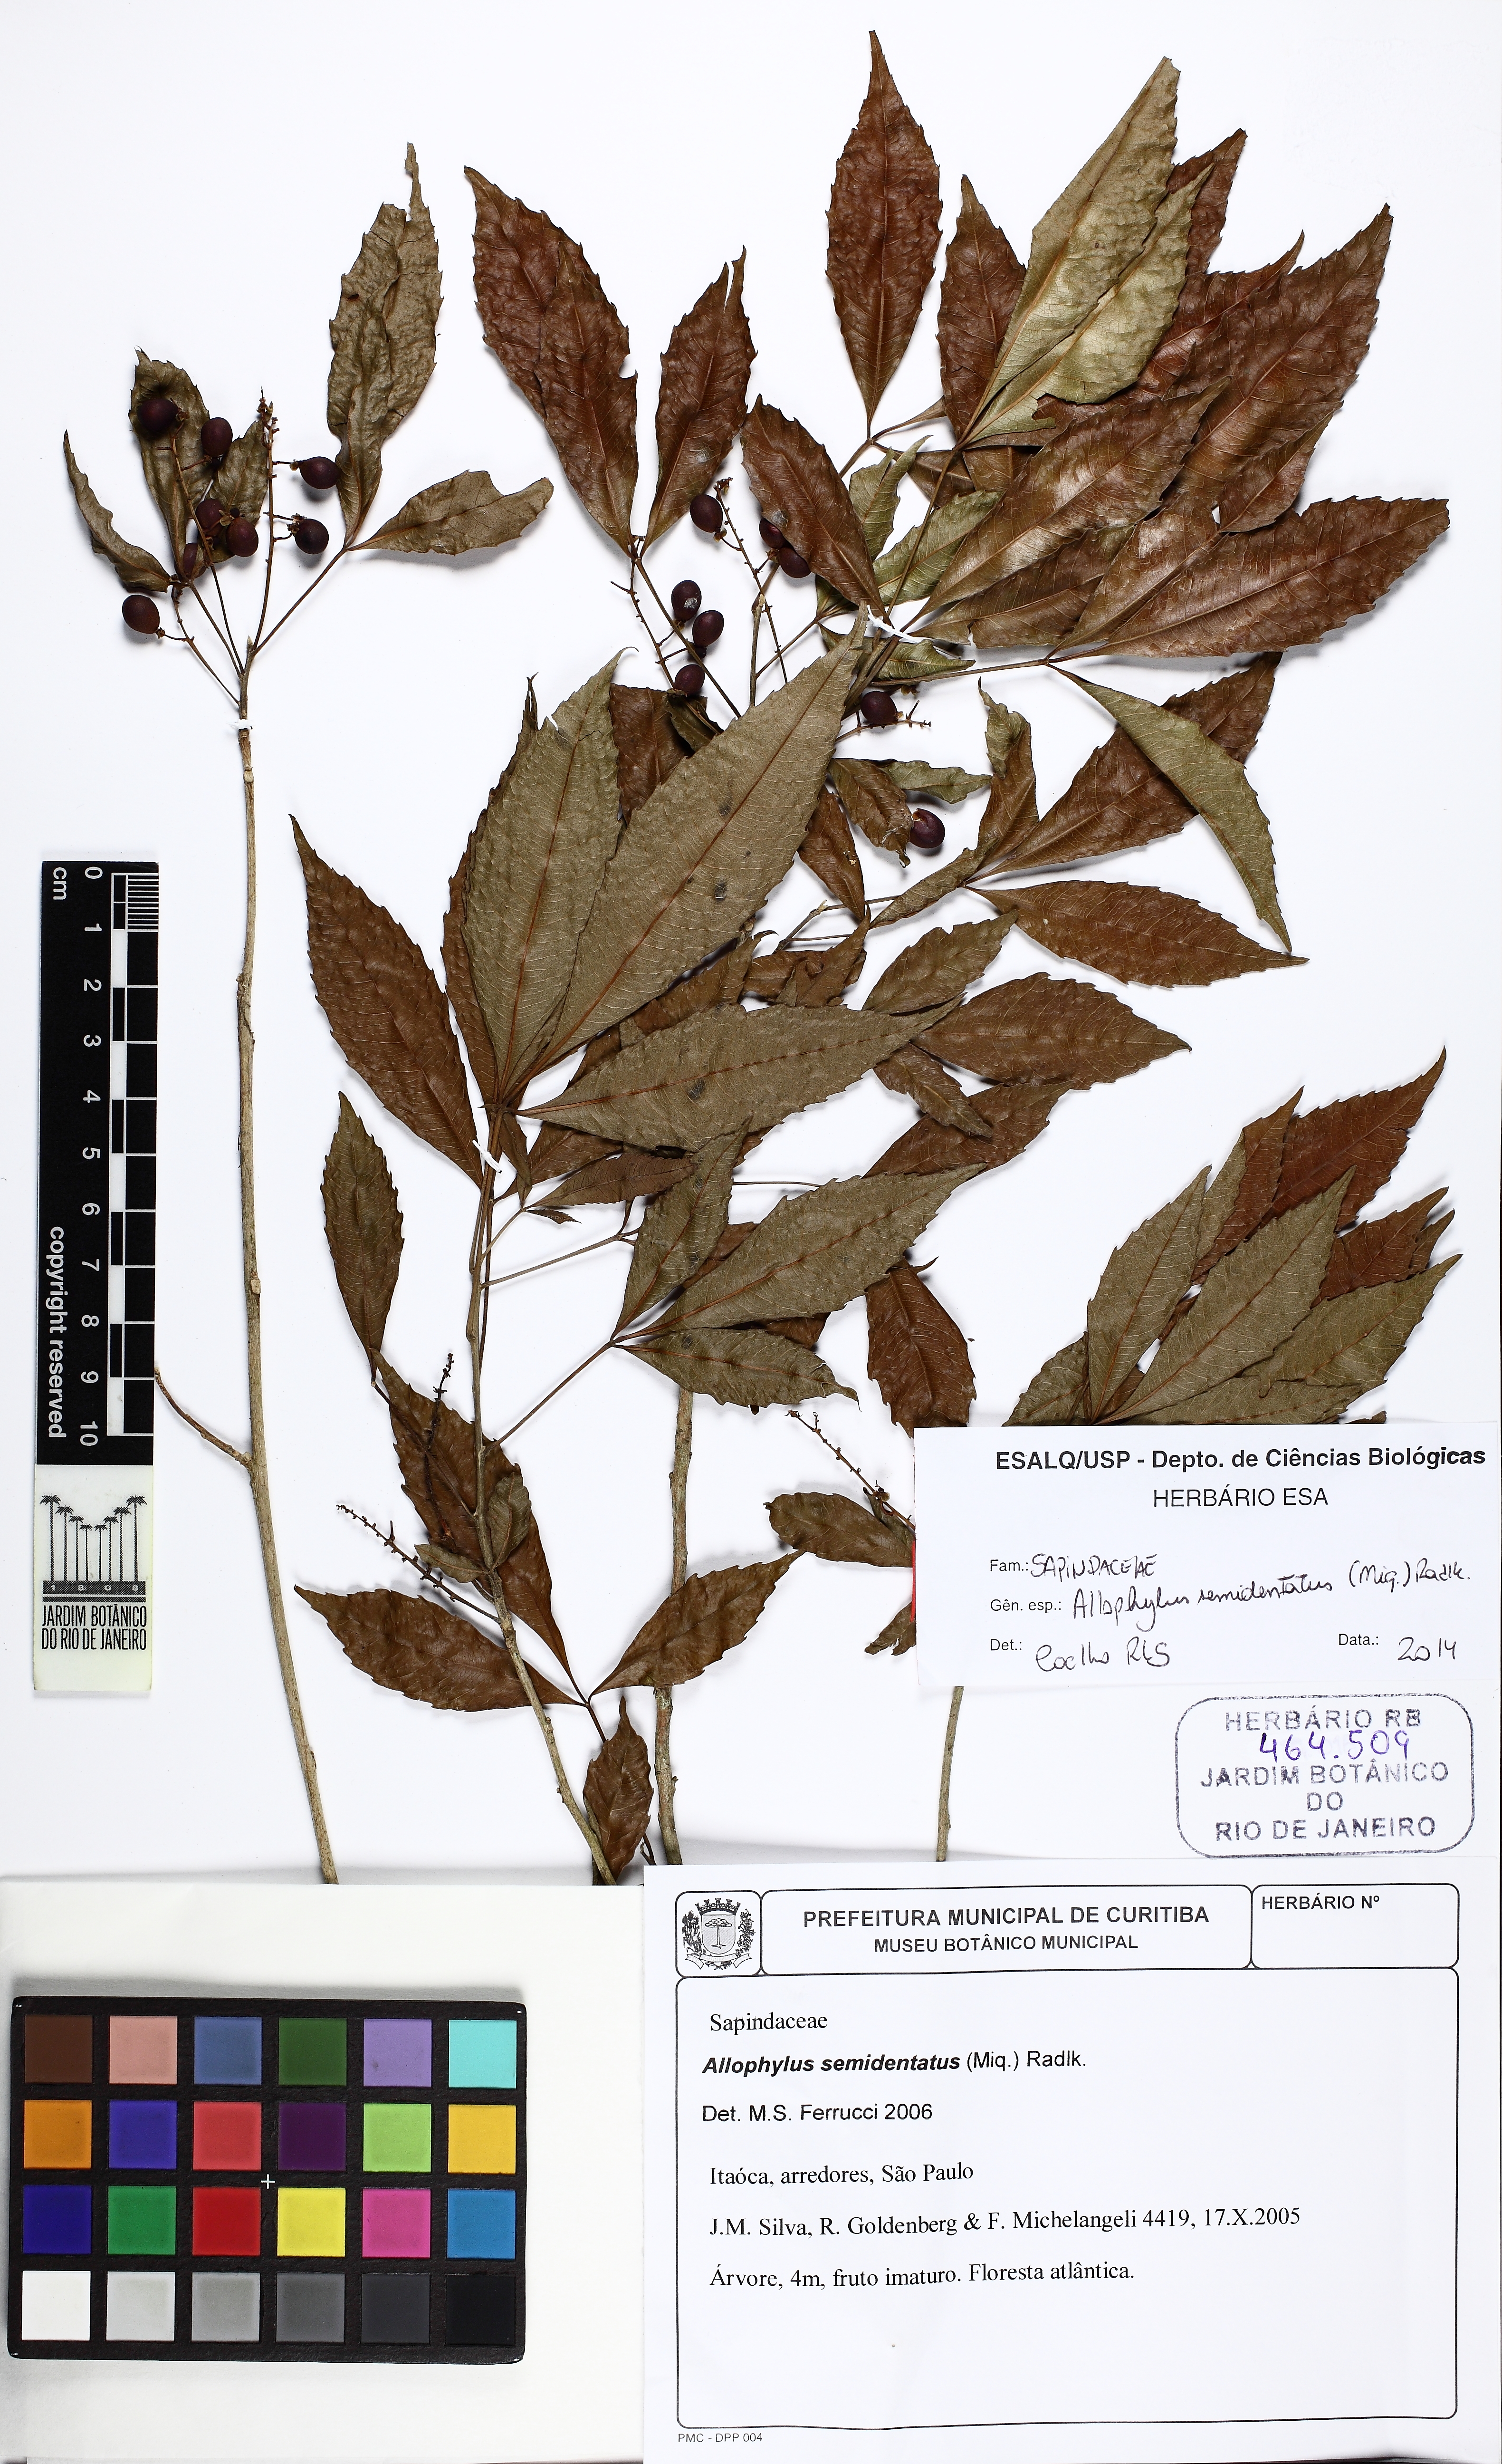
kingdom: Plantae
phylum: Tracheophyta
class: Magnoliopsida
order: Sapindales
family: Sapindaceae
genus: Allophylus
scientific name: Allophylus semidentatus
